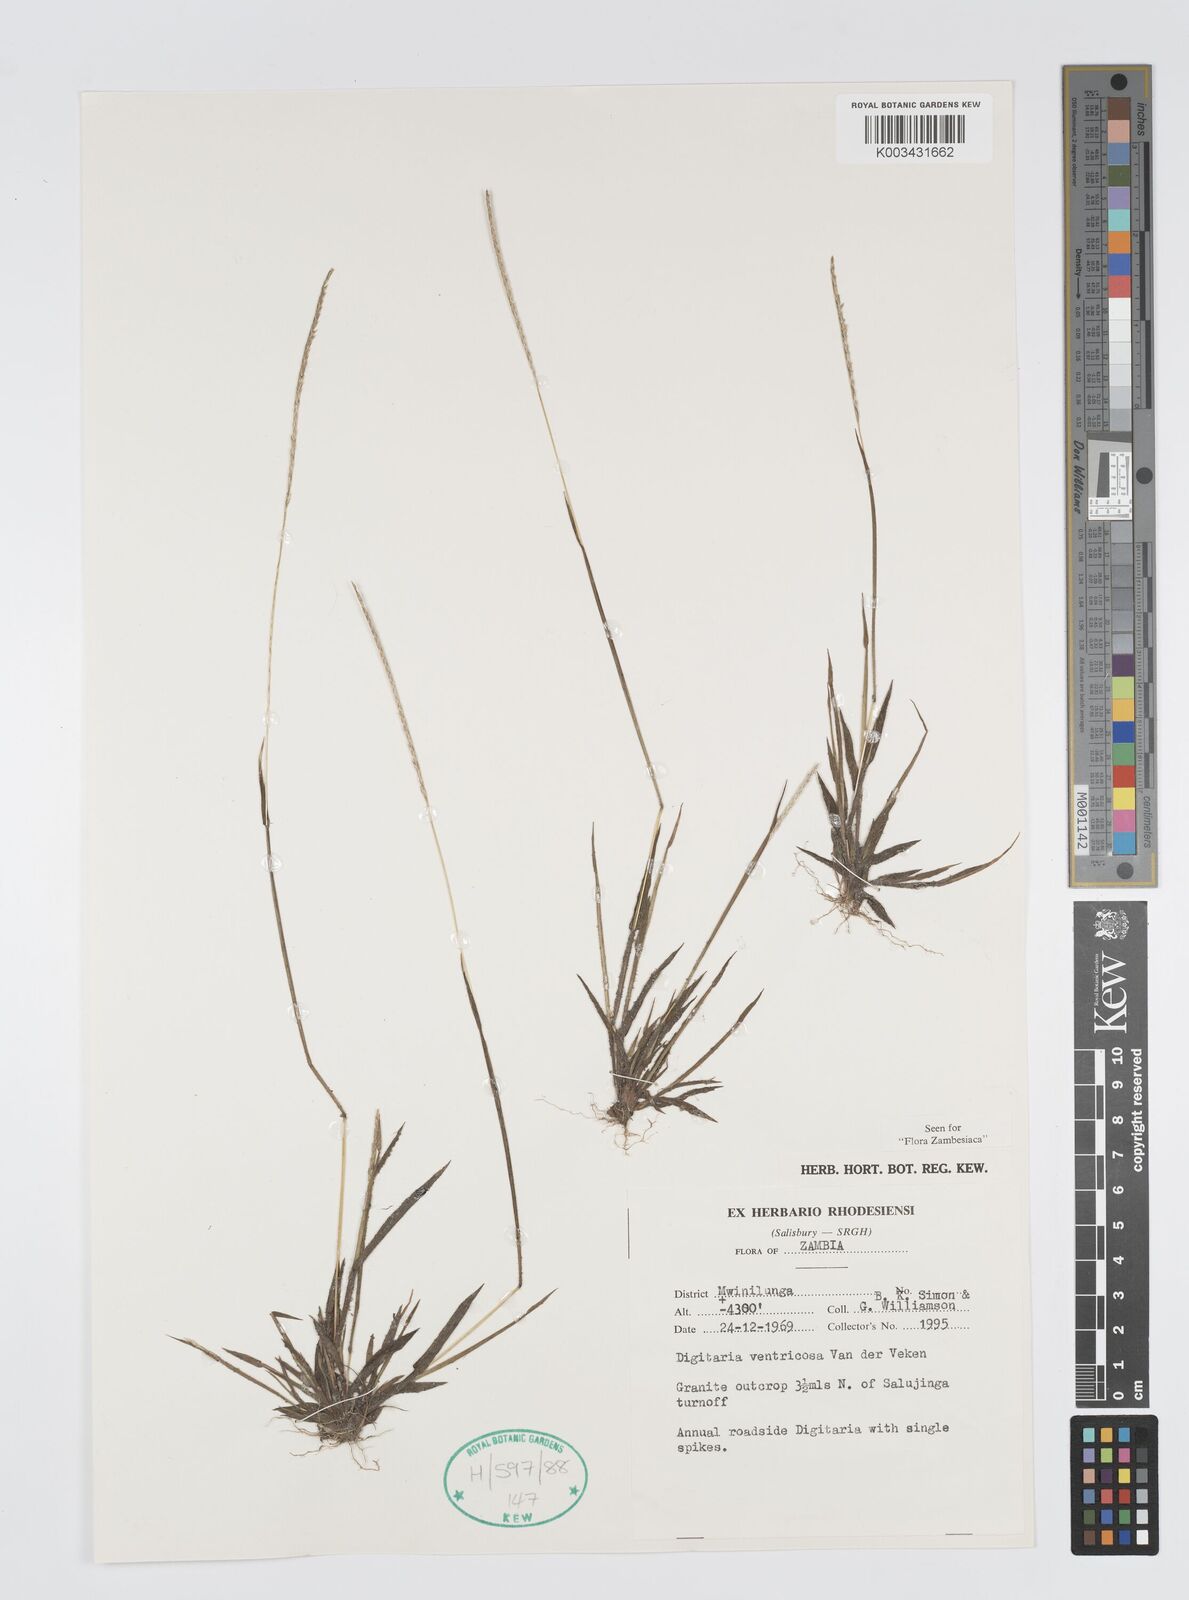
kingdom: Plantae
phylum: Tracheophyta
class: Liliopsida
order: Poales
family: Poaceae
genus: Digitaria
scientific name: Digitaria ventriosa
